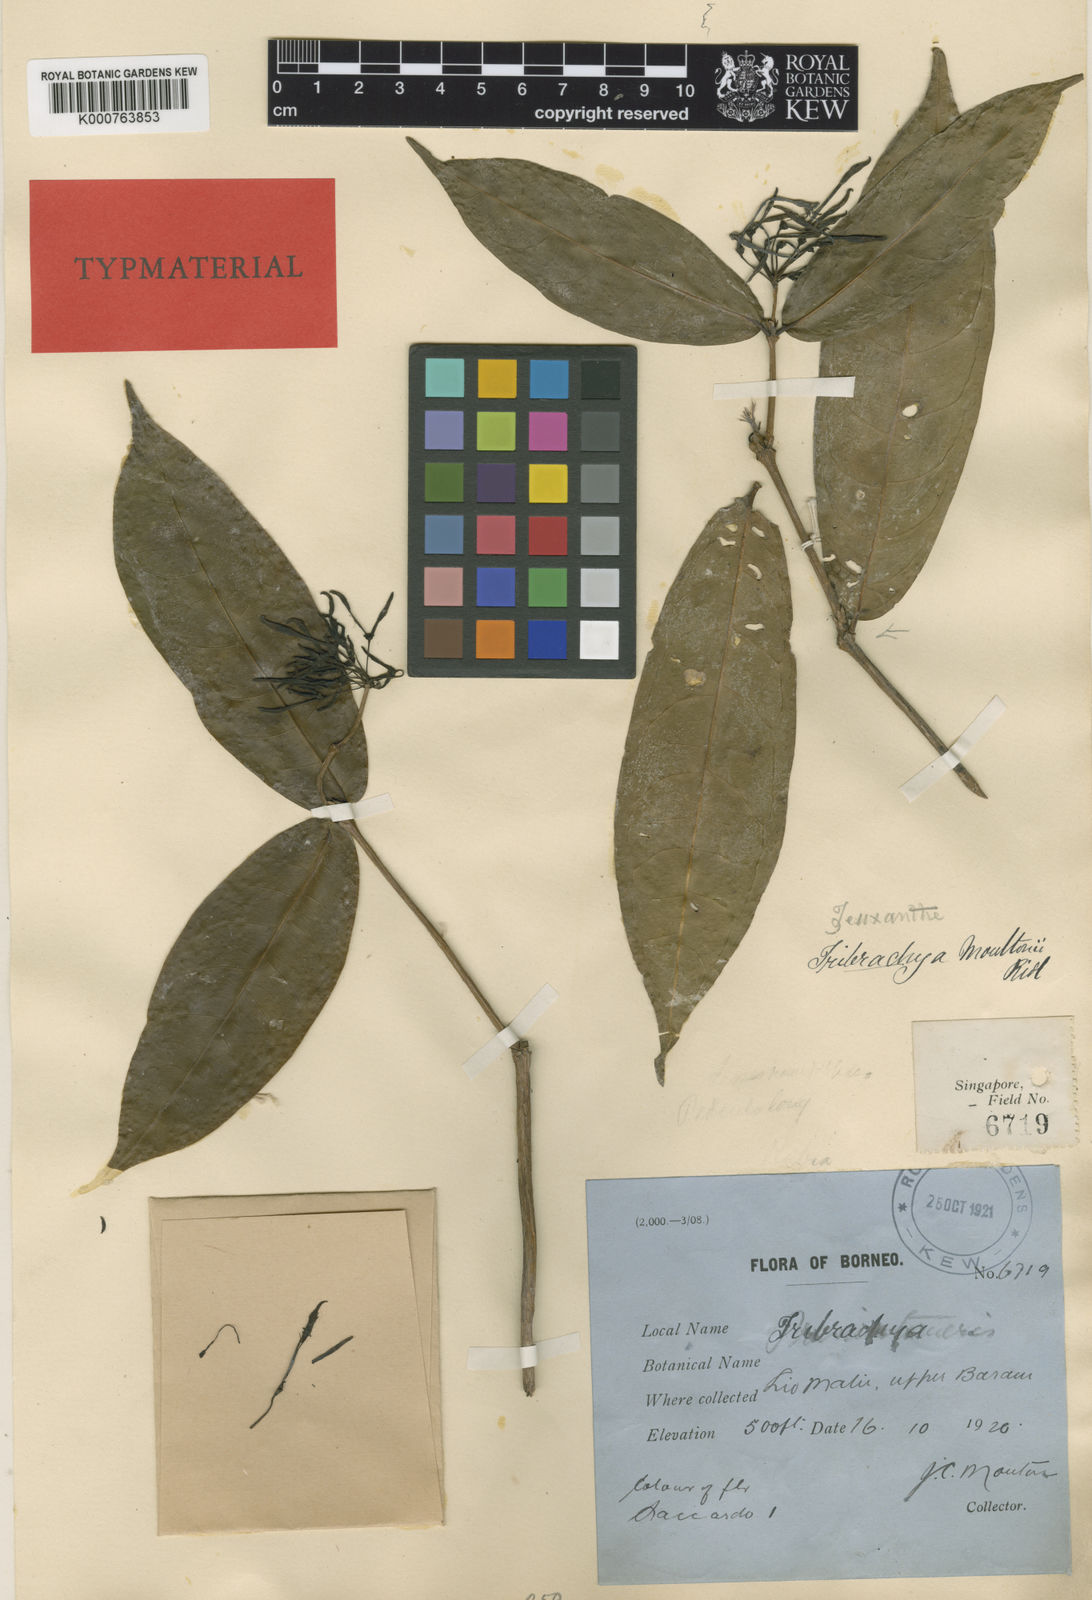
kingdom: Plantae
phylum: Tracheophyta
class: Magnoliopsida
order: Gentianales
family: Rubiaceae
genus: Prismatomeris
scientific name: Prismatomeris beccariana
